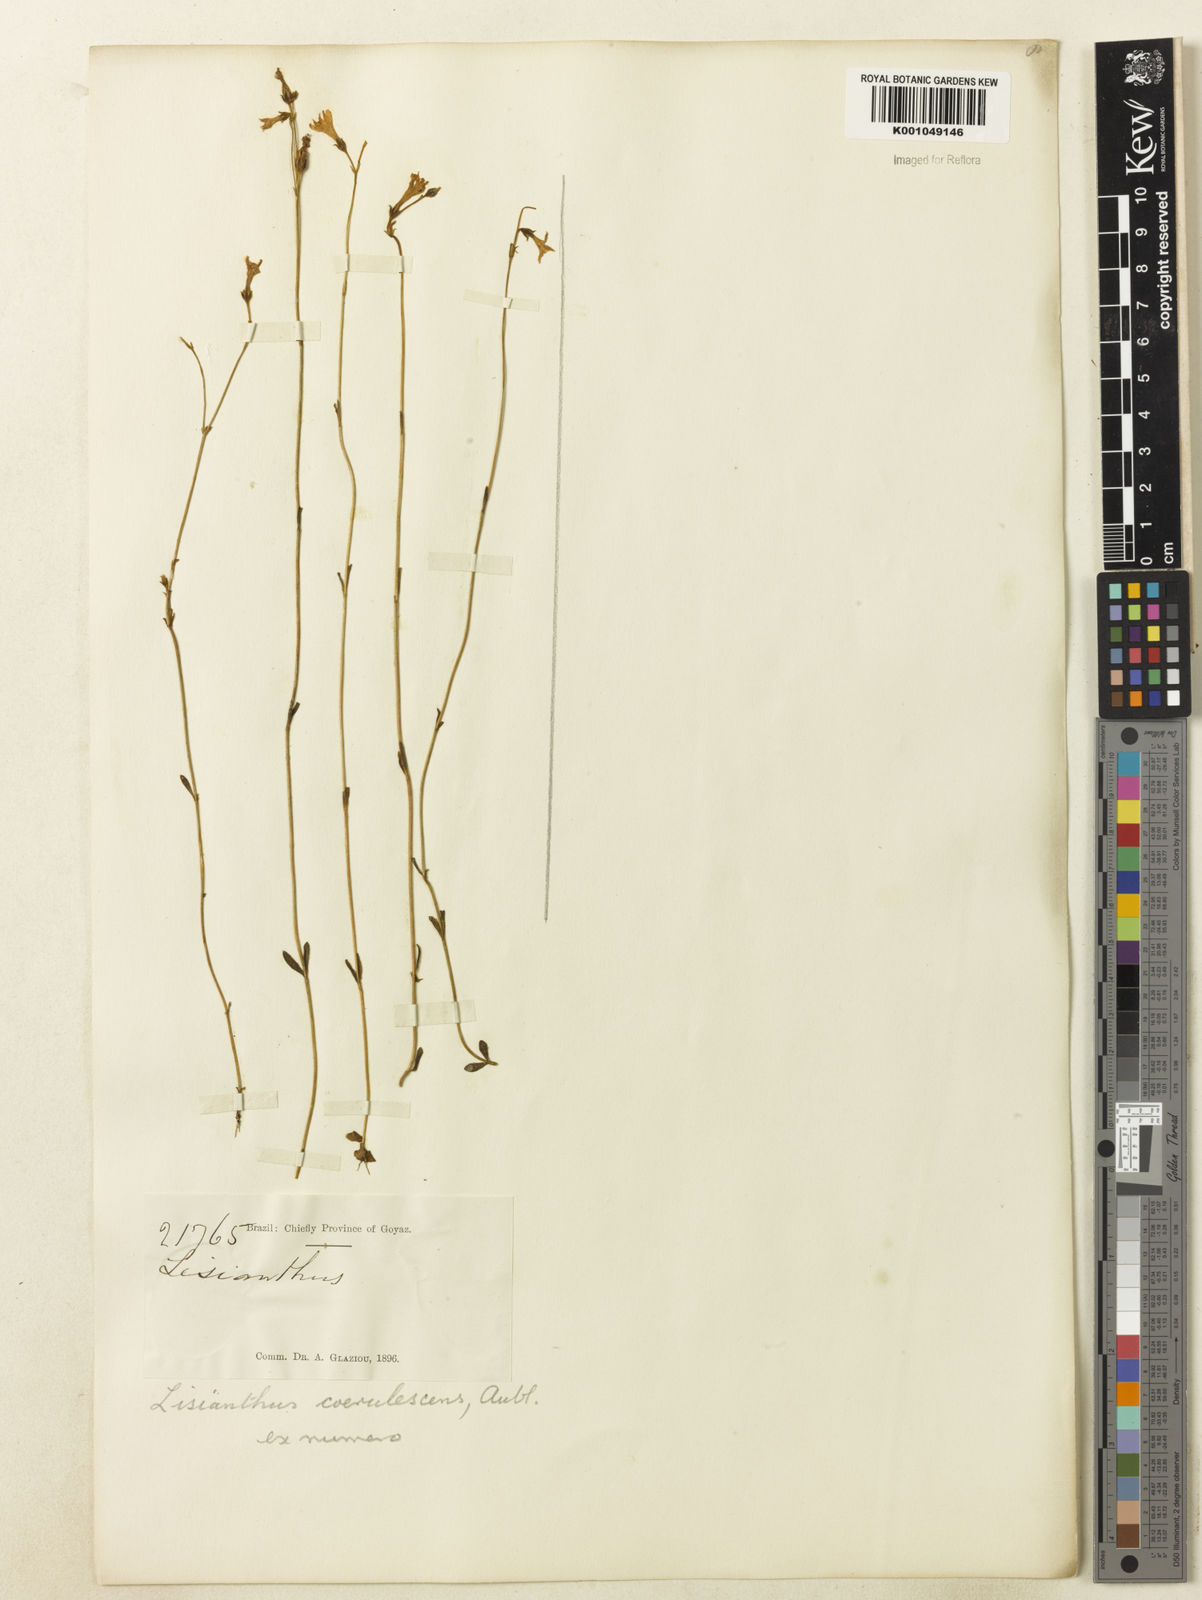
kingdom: Plantae
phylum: Tracheophyta
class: Magnoliopsida
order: Gentianales
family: Gentianaceae
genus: Tetrapollinia
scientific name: Tetrapollinia caerulescens
